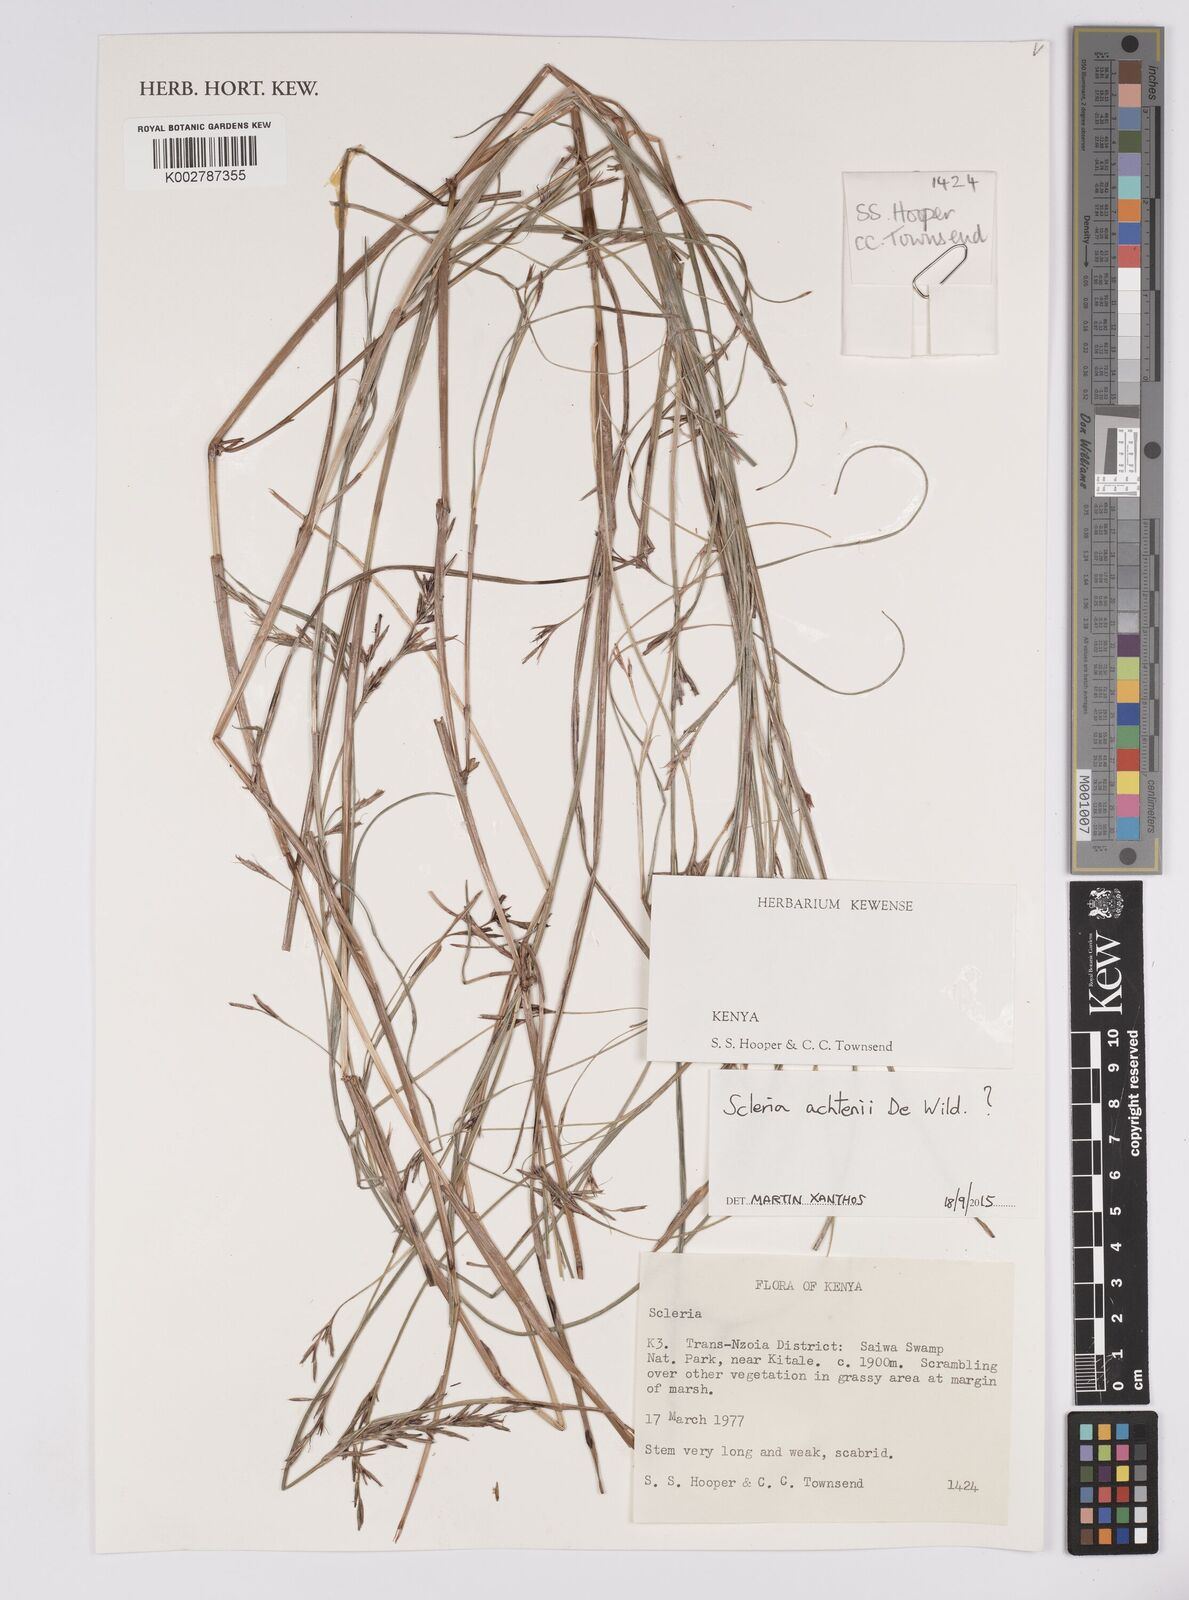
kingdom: Plantae
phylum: Tracheophyta
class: Liliopsida
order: Poales
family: Cyperaceae
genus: Scleria
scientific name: Scleria achtenii
